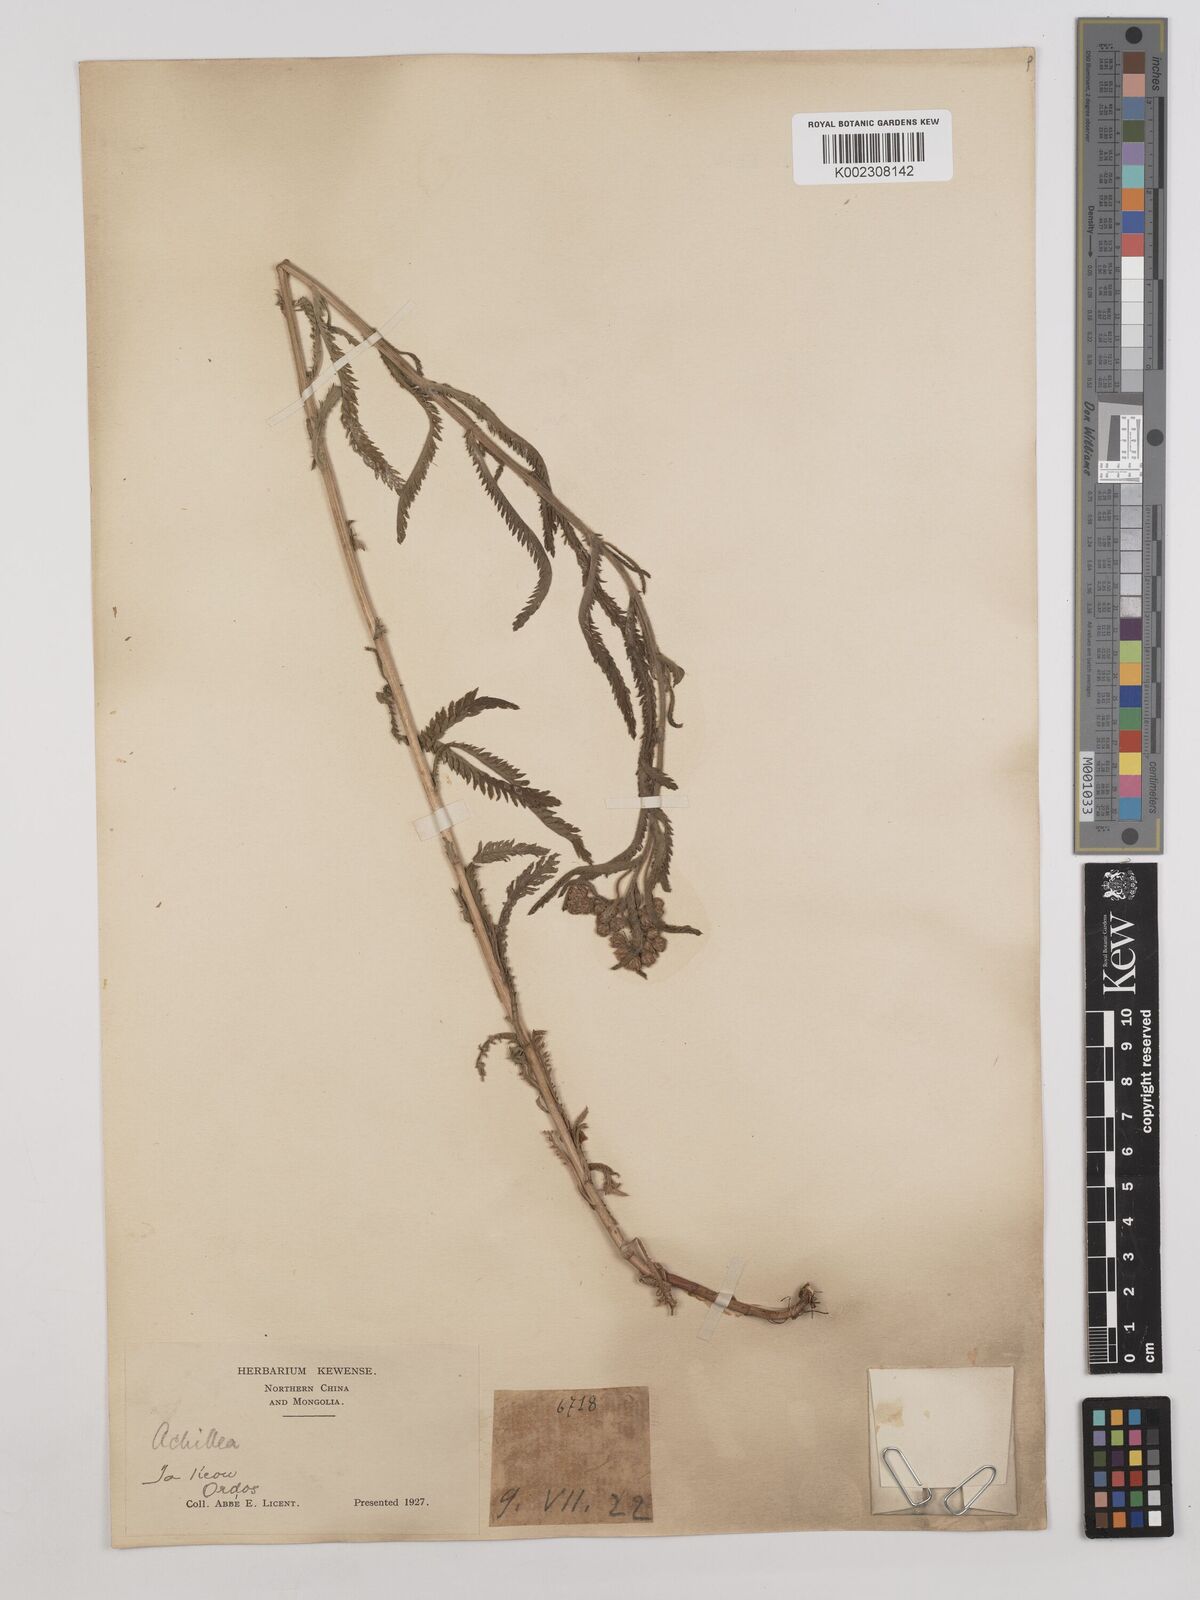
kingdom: Plantae
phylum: Tracheophyta
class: Magnoliopsida
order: Asterales
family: Asteraceae
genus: Achillea
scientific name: Achillea
